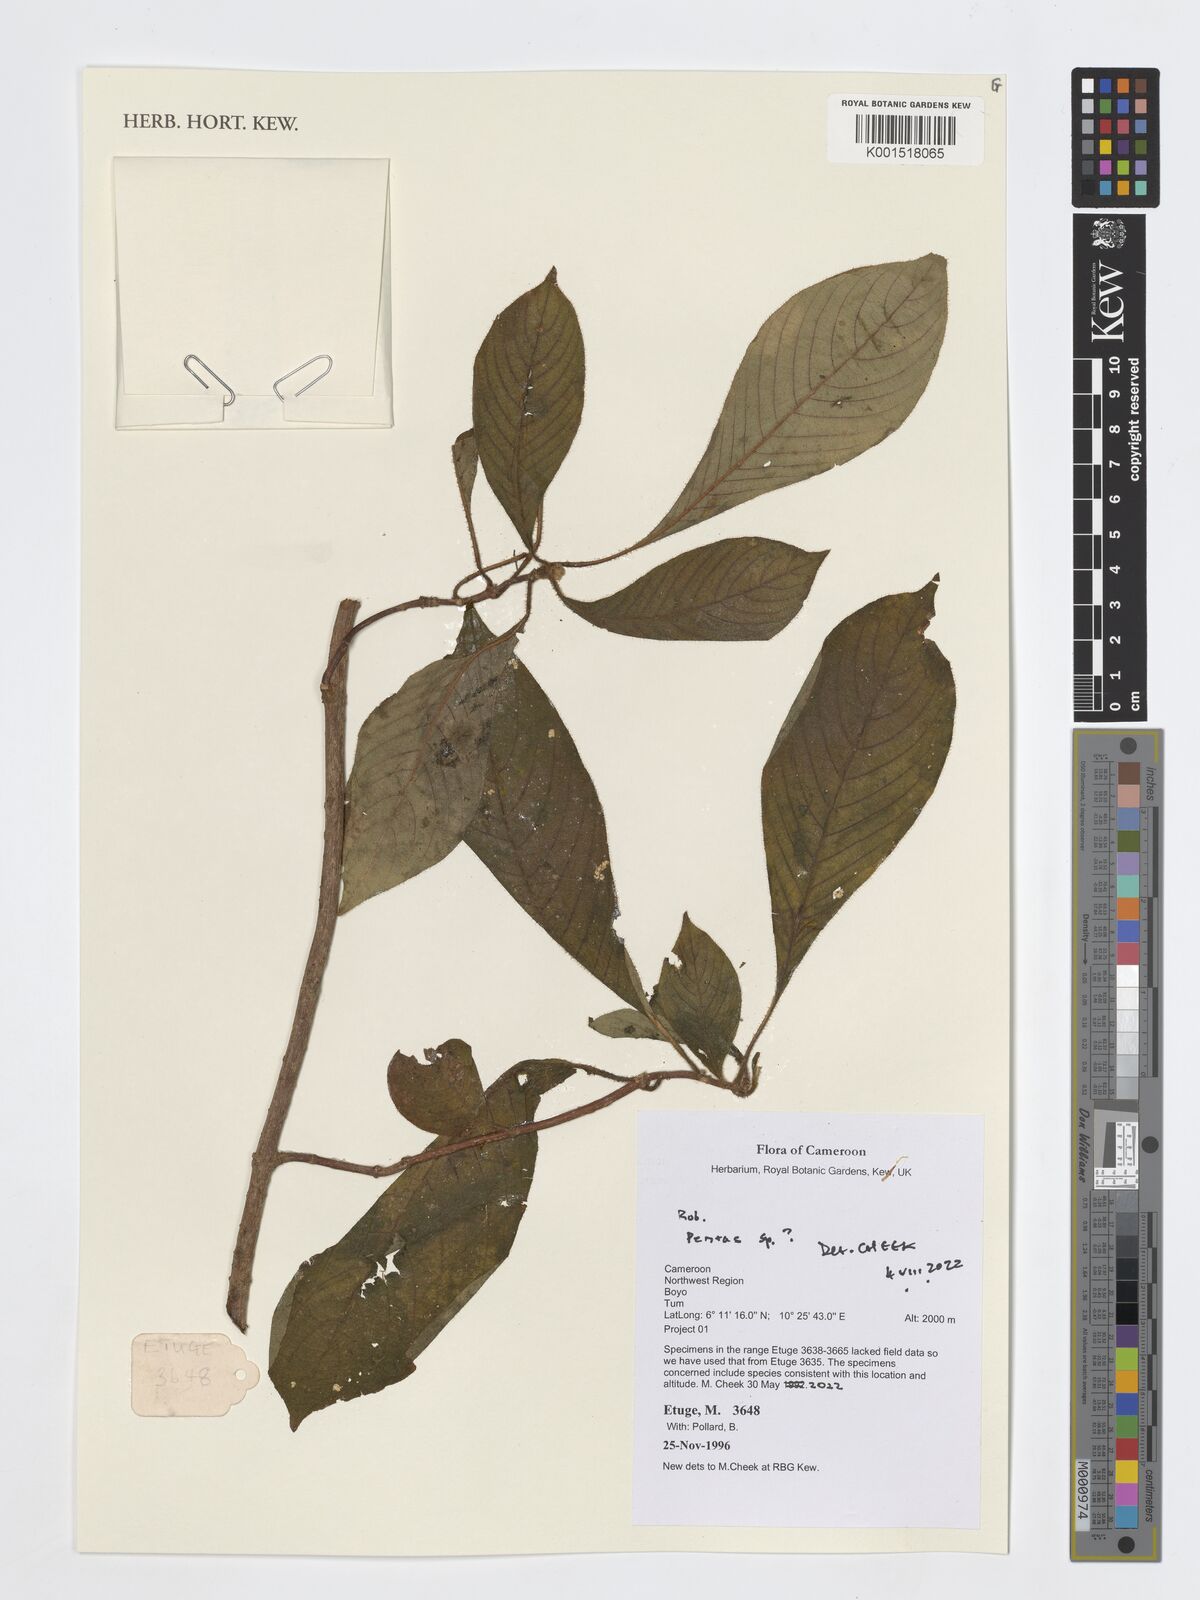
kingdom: Plantae
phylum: Tracheophyta
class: Magnoliopsida
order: Gentianales
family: Rubiaceae
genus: Pentas
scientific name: Pentas
